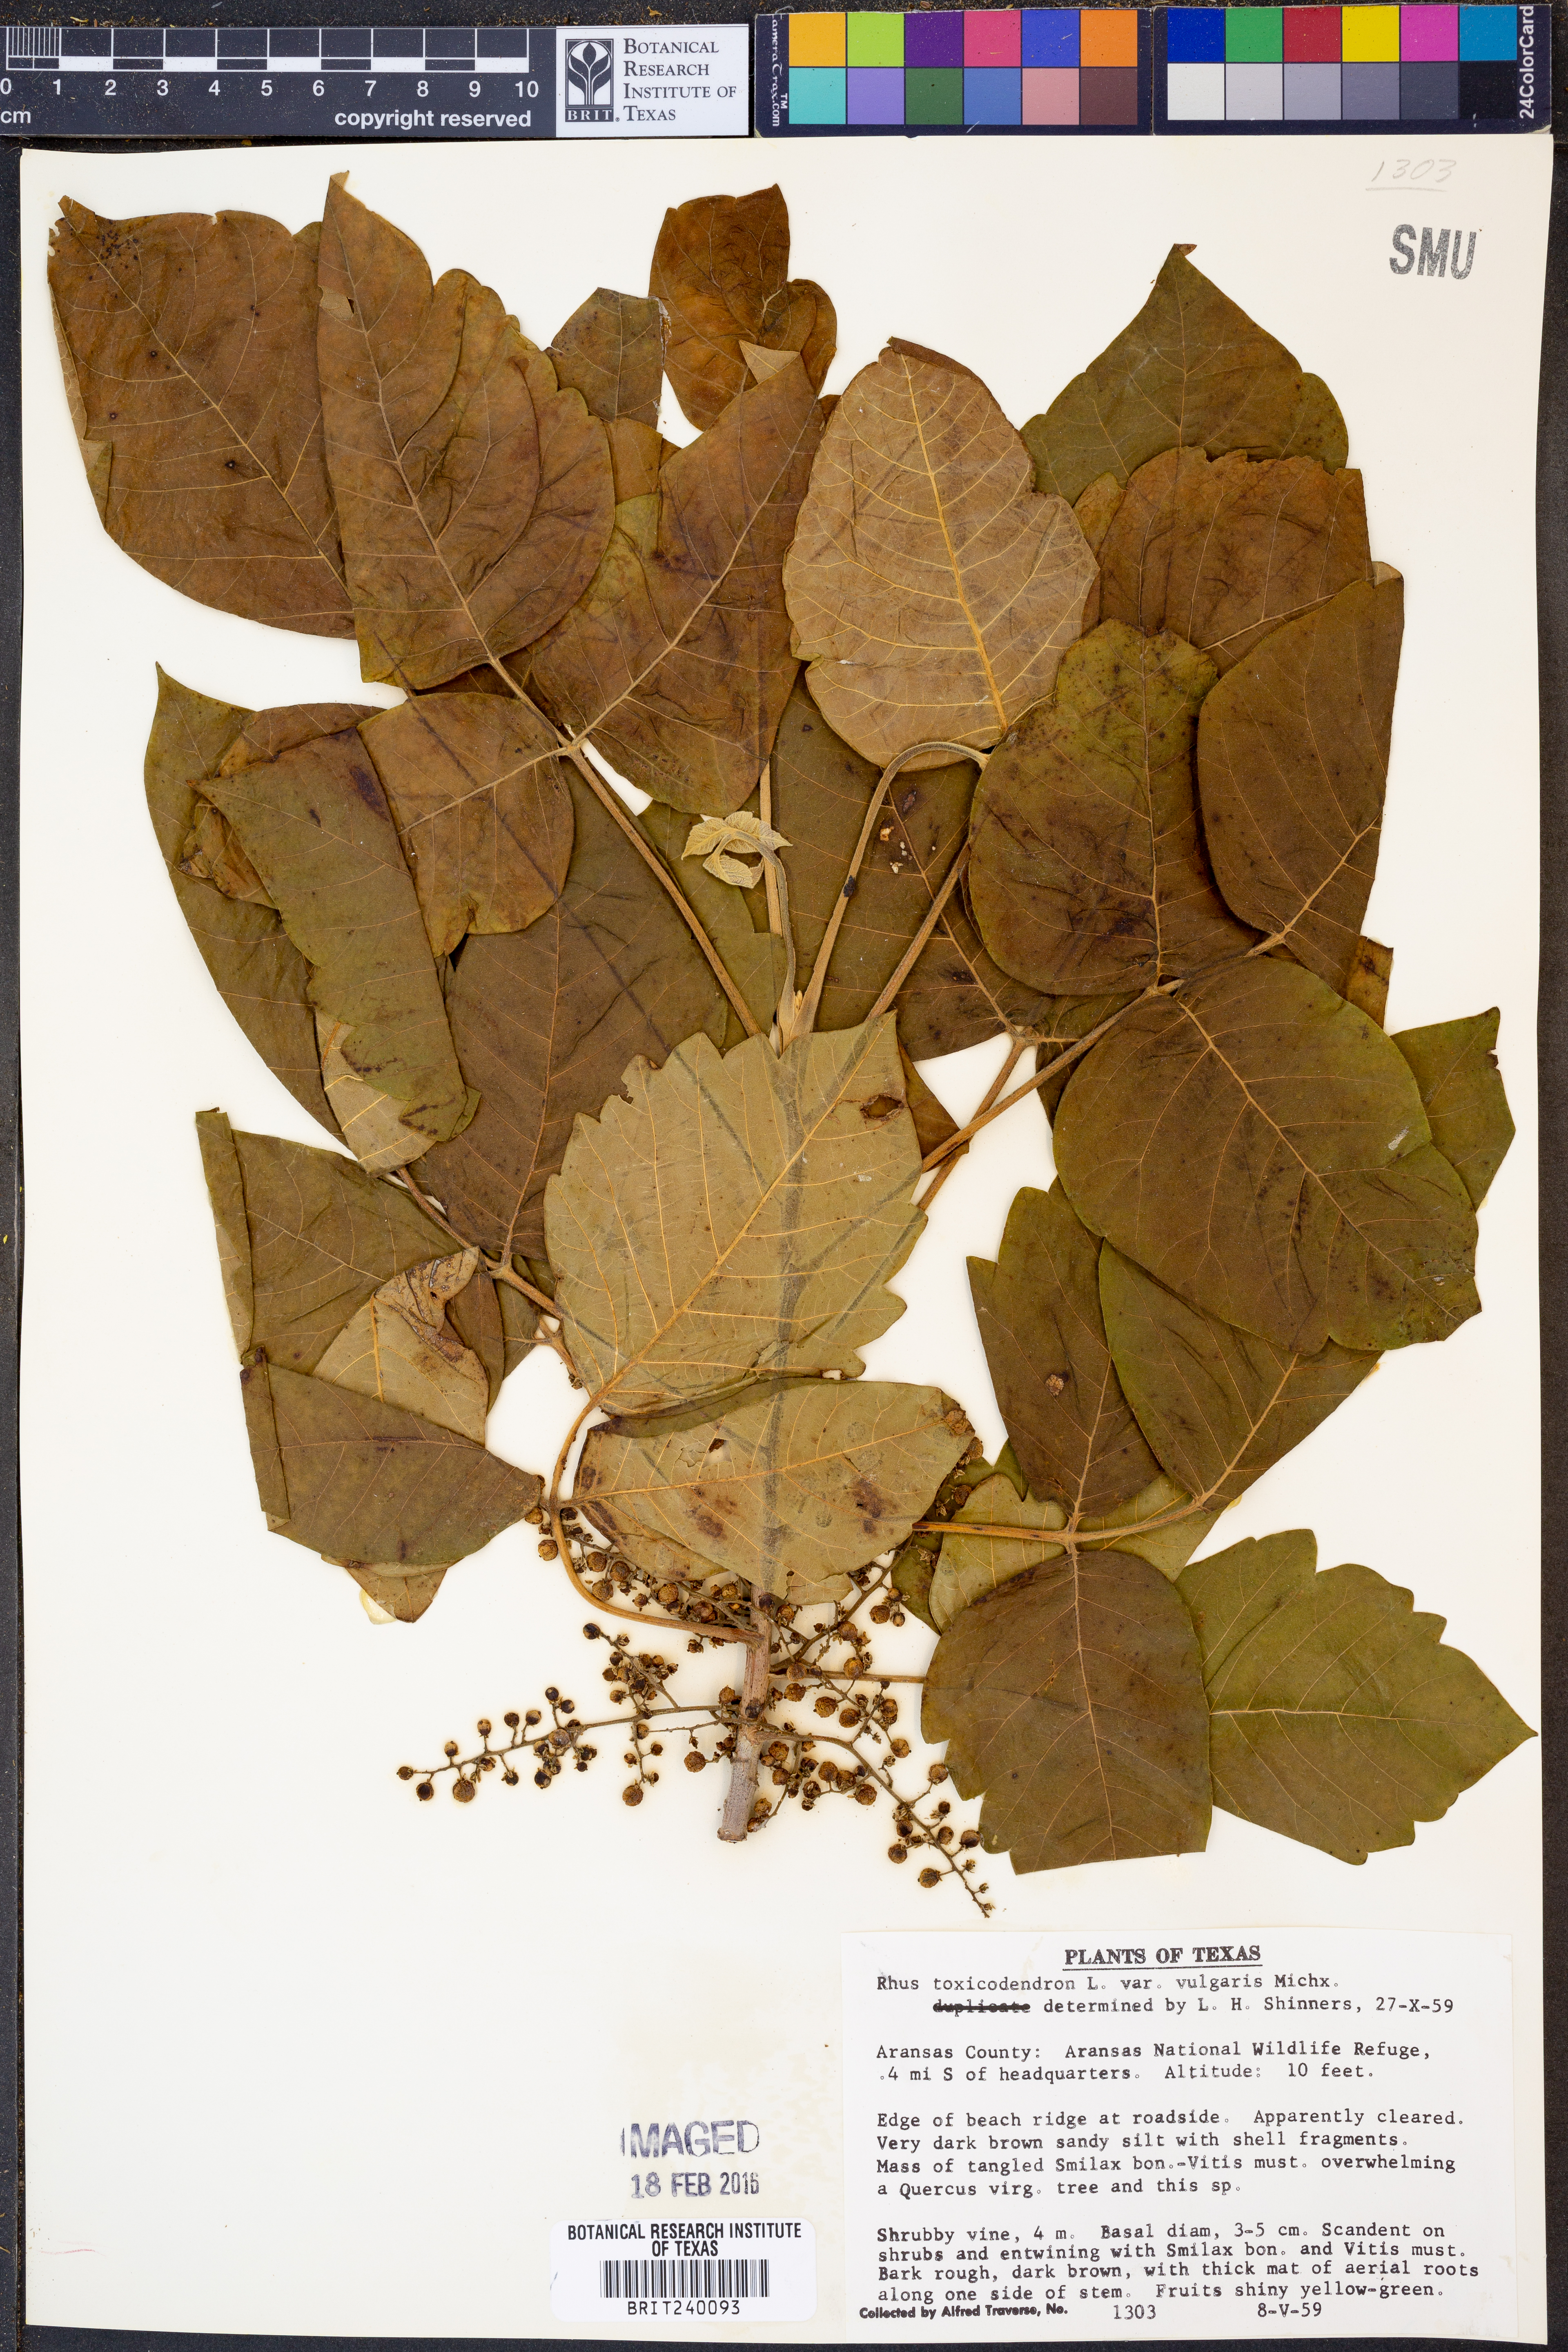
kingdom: Plantae
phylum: Tracheophyta
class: Magnoliopsida
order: Sapindales
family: Anacardiaceae
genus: Toxicodendron
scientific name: Toxicodendron rydbergii
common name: Rydberg's poison-ivy
